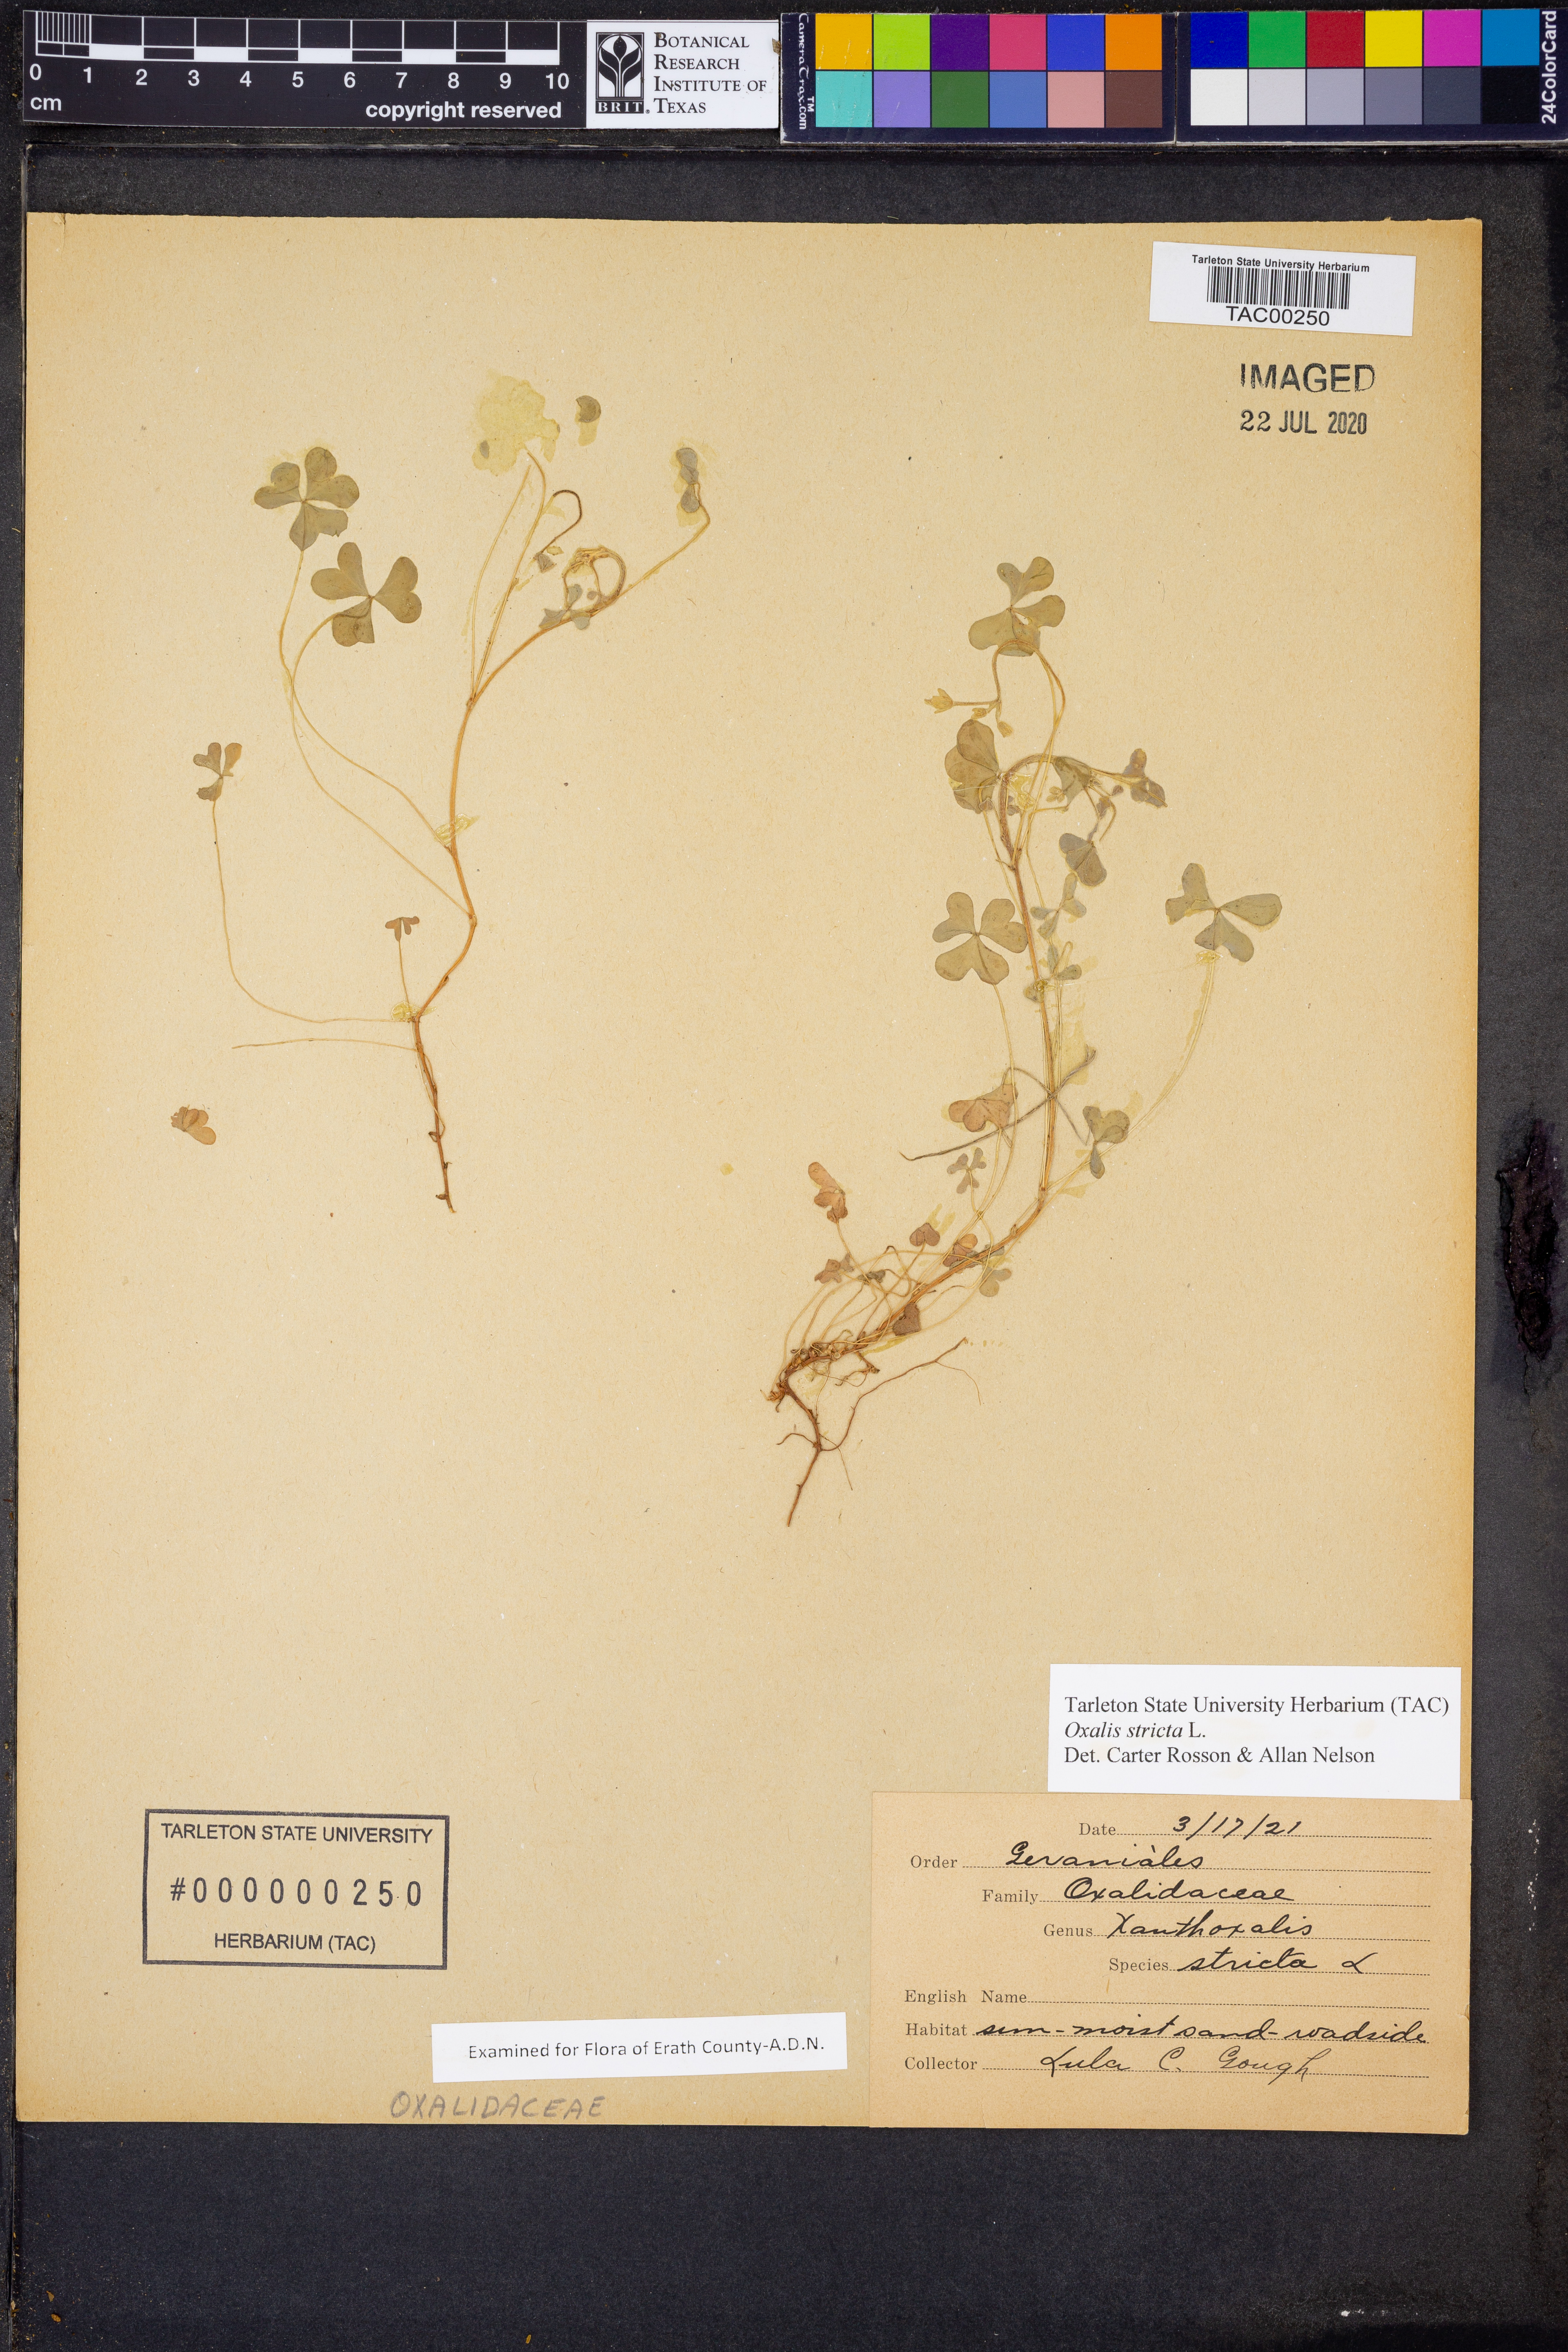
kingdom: Plantae
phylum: Tracheophyta
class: Magnoliopsida
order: Oxalidales
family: Oxalidaceae
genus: Oxalis
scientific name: Oxalis stricta
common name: Upright yellow-sorrel
